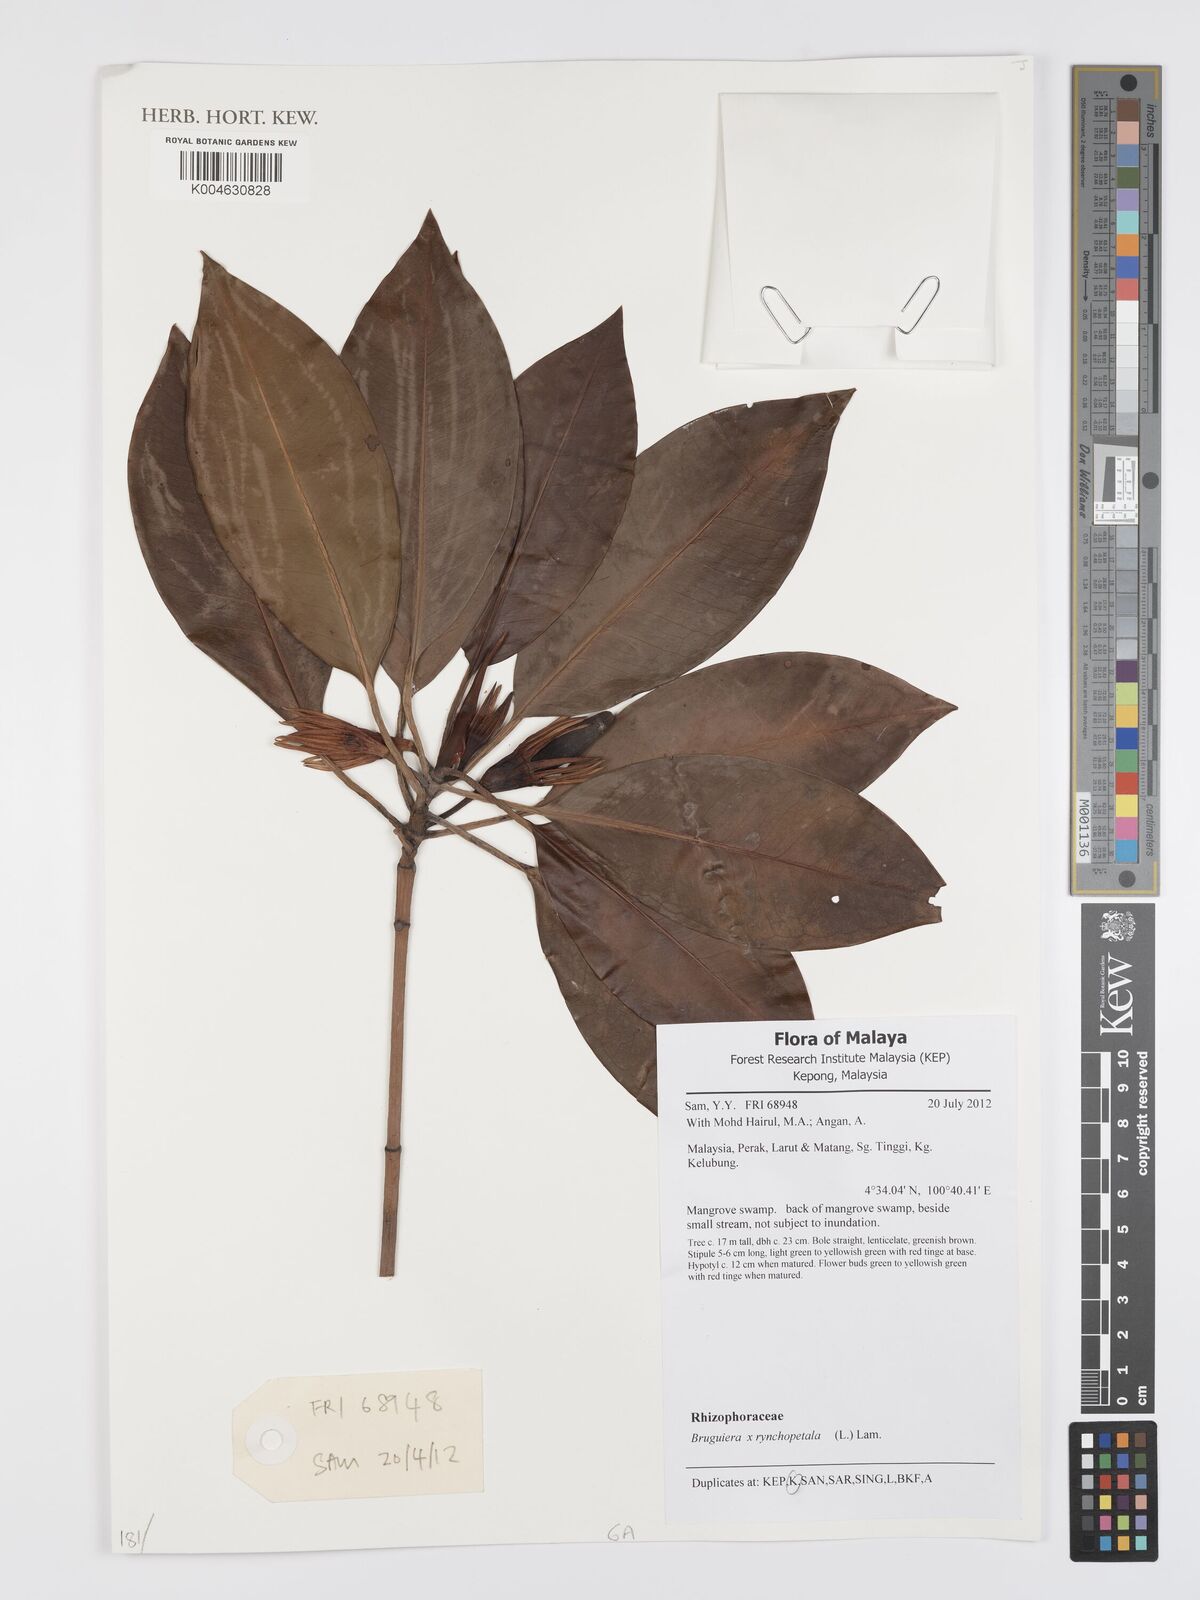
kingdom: Plantae
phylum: Tracheophyta
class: Magnoliopsida
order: Malpighiales
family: Rhizophoraceae
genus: Bruguiera
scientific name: Bruguiera rhynchopetala
